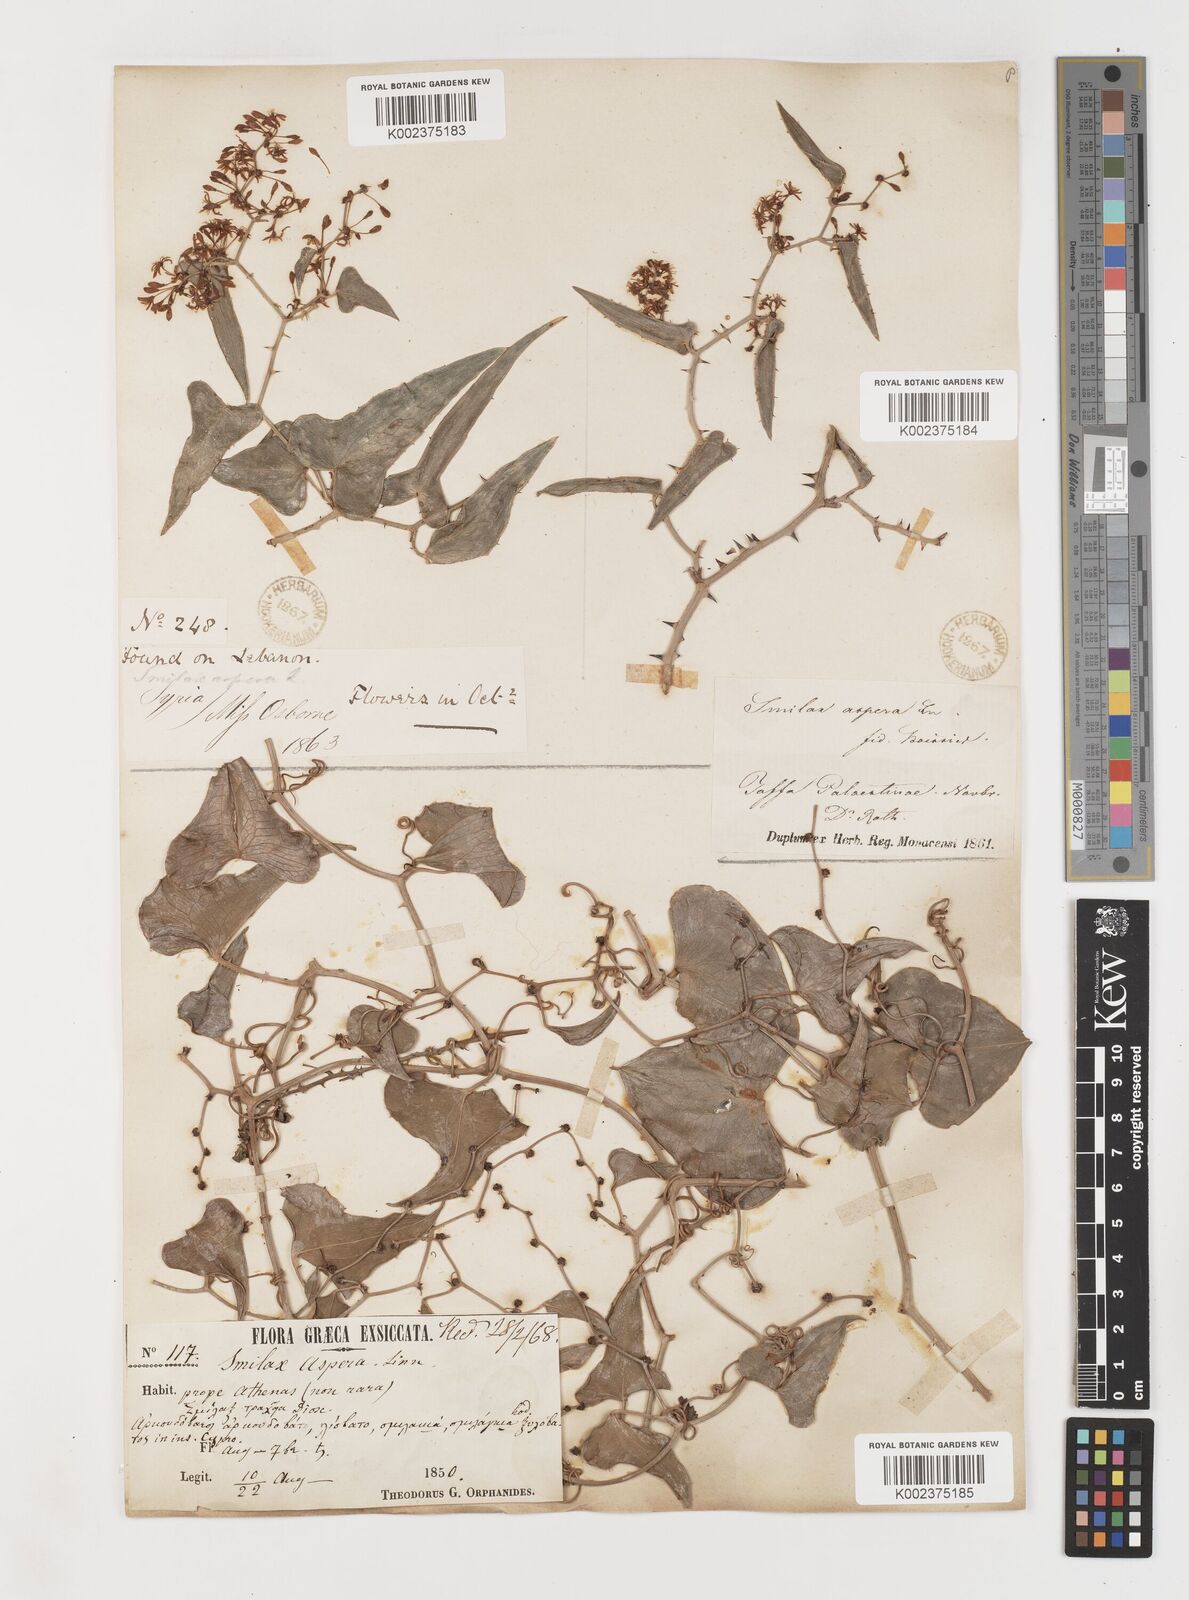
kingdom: Plantae
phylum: Tracheophyta
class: Liliopsida
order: Liliales
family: Smilacaceae
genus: Smilax
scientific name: Smilax aspera
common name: Common smilax
